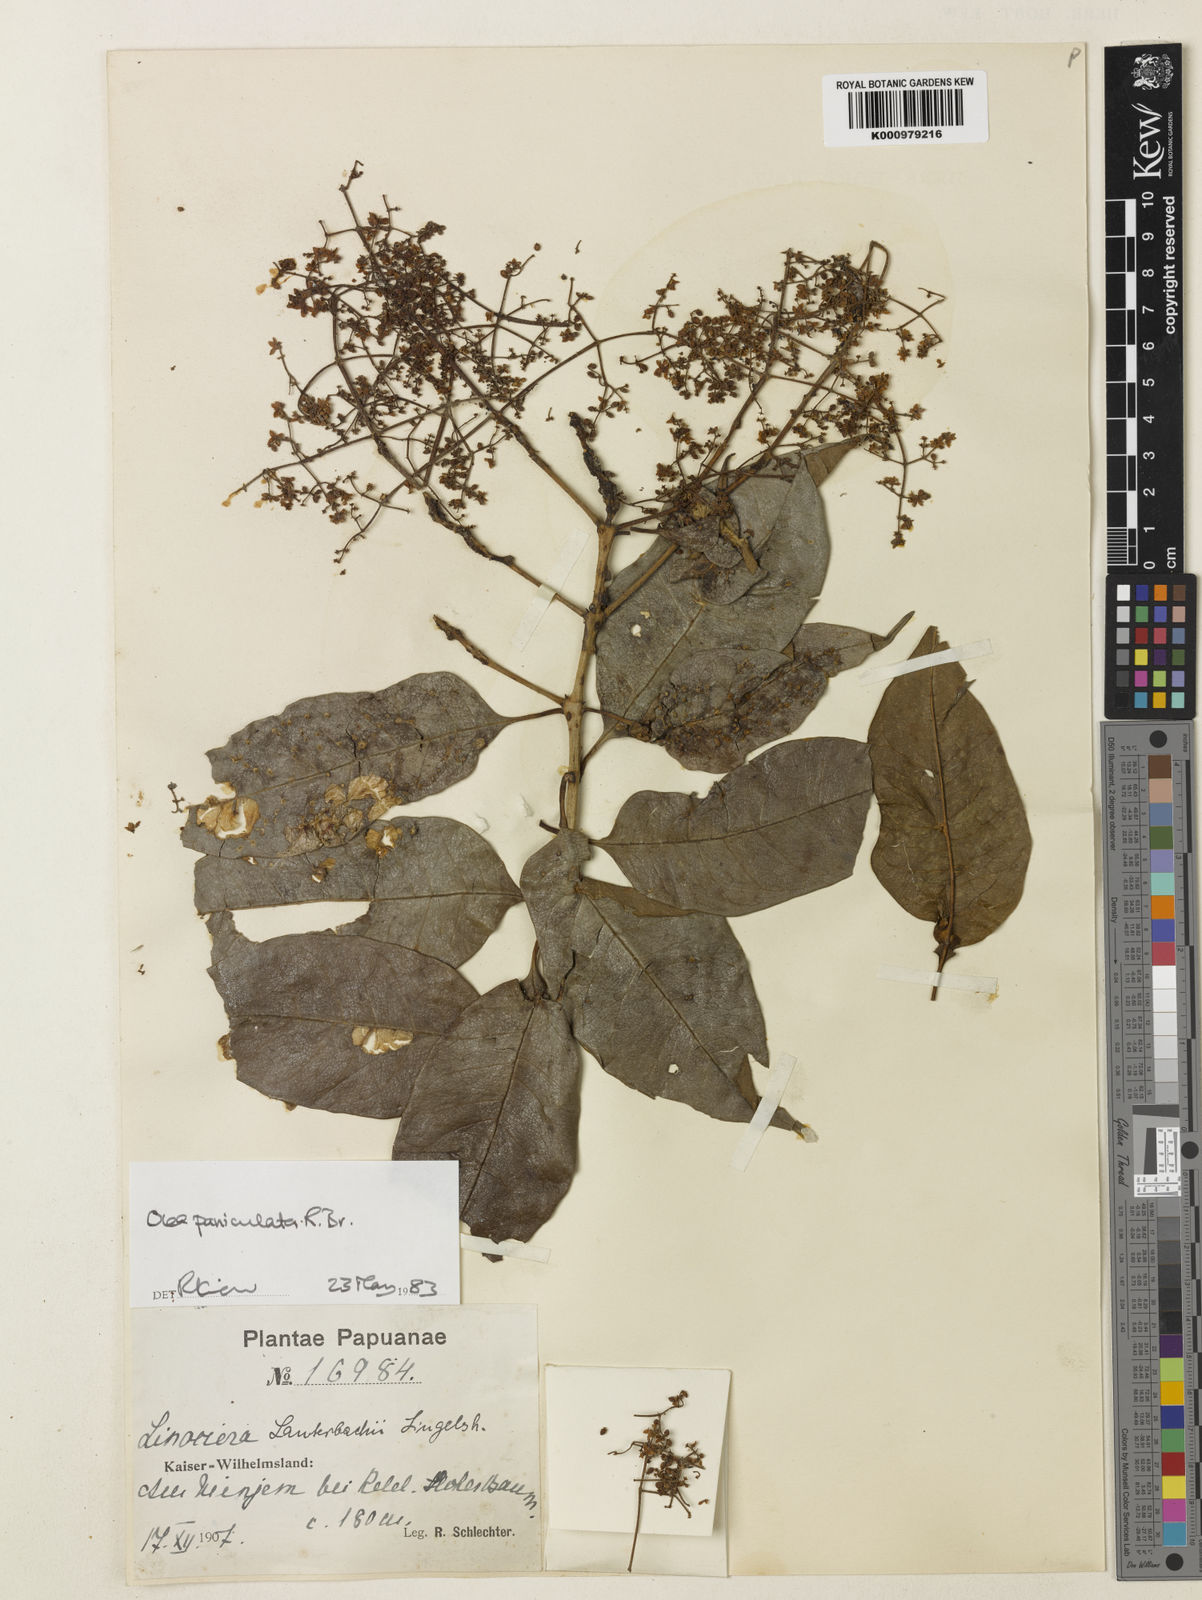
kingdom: Plantae
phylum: Tracheophyta
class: Magnoliopsida
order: Lamiales
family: Oleaceae
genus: Chionanthus
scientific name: Chionanthus ramiflorus
